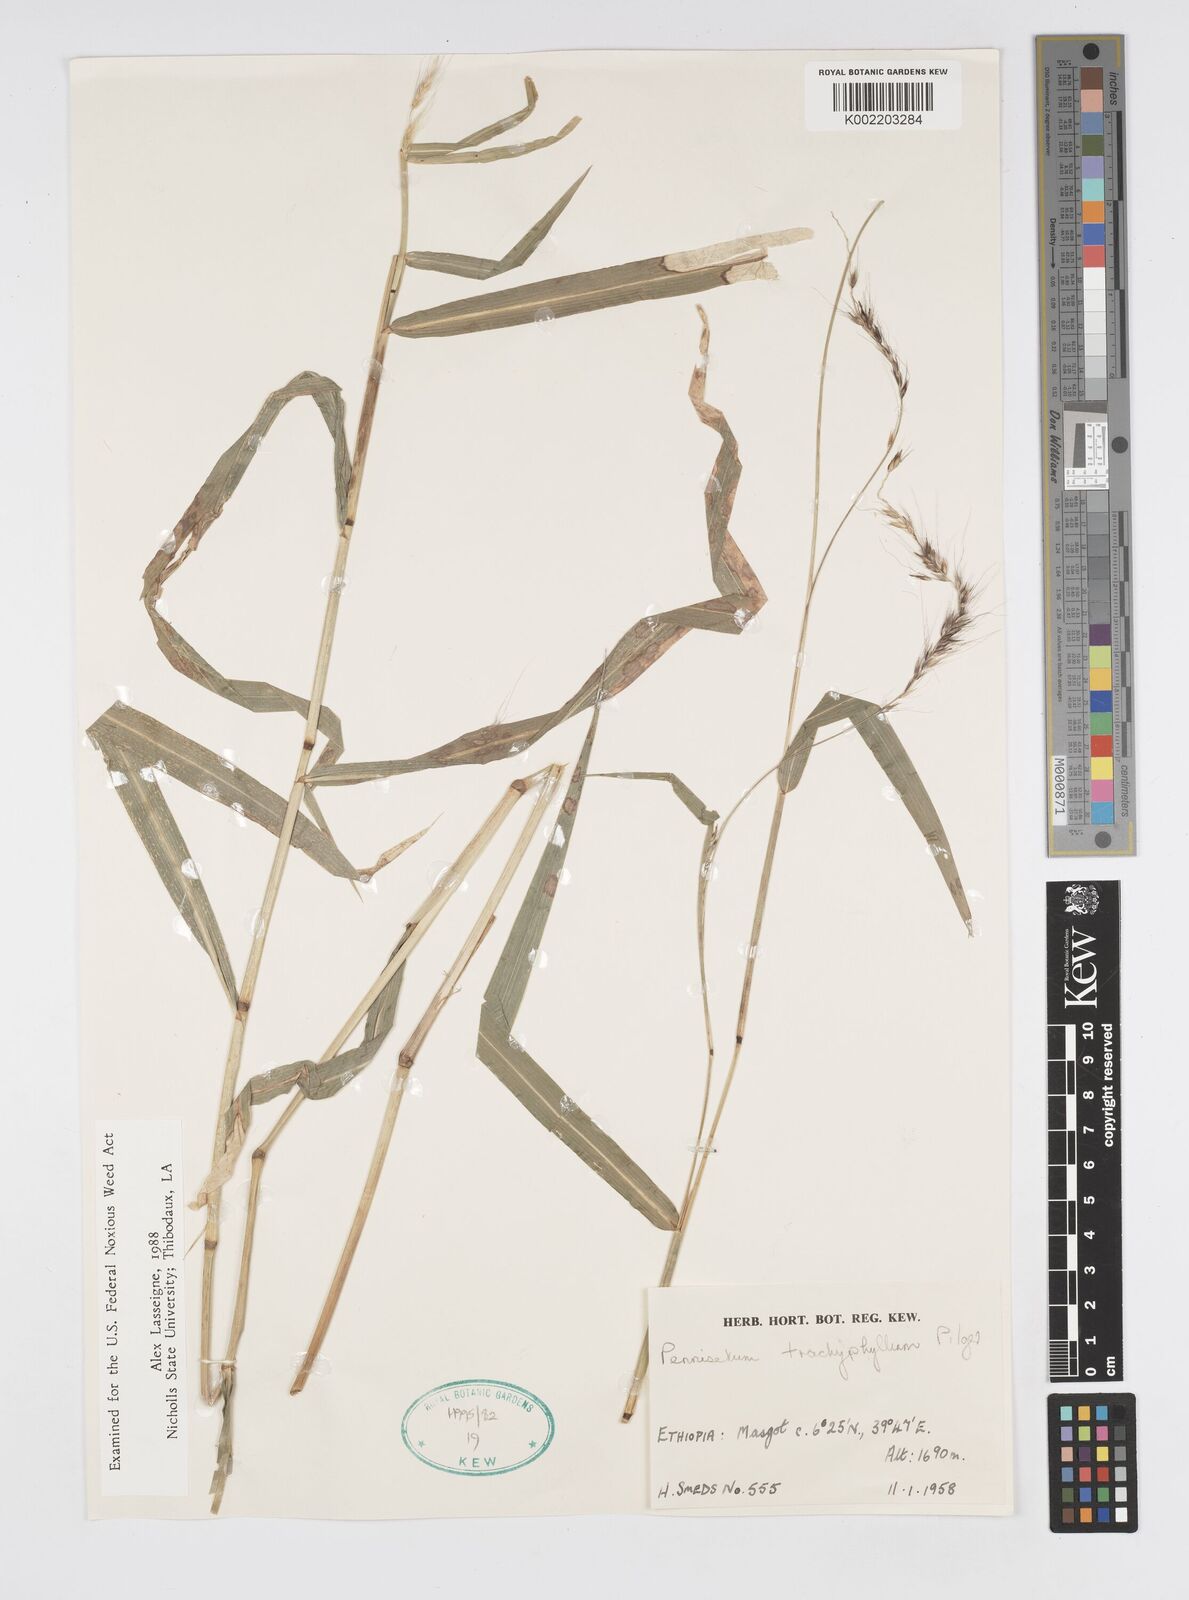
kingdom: Plantae
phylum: Tracheophyta
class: Liliopsida
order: Poales
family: Poaceae
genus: Cenchrus
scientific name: Cenchrus trachyphyllus
